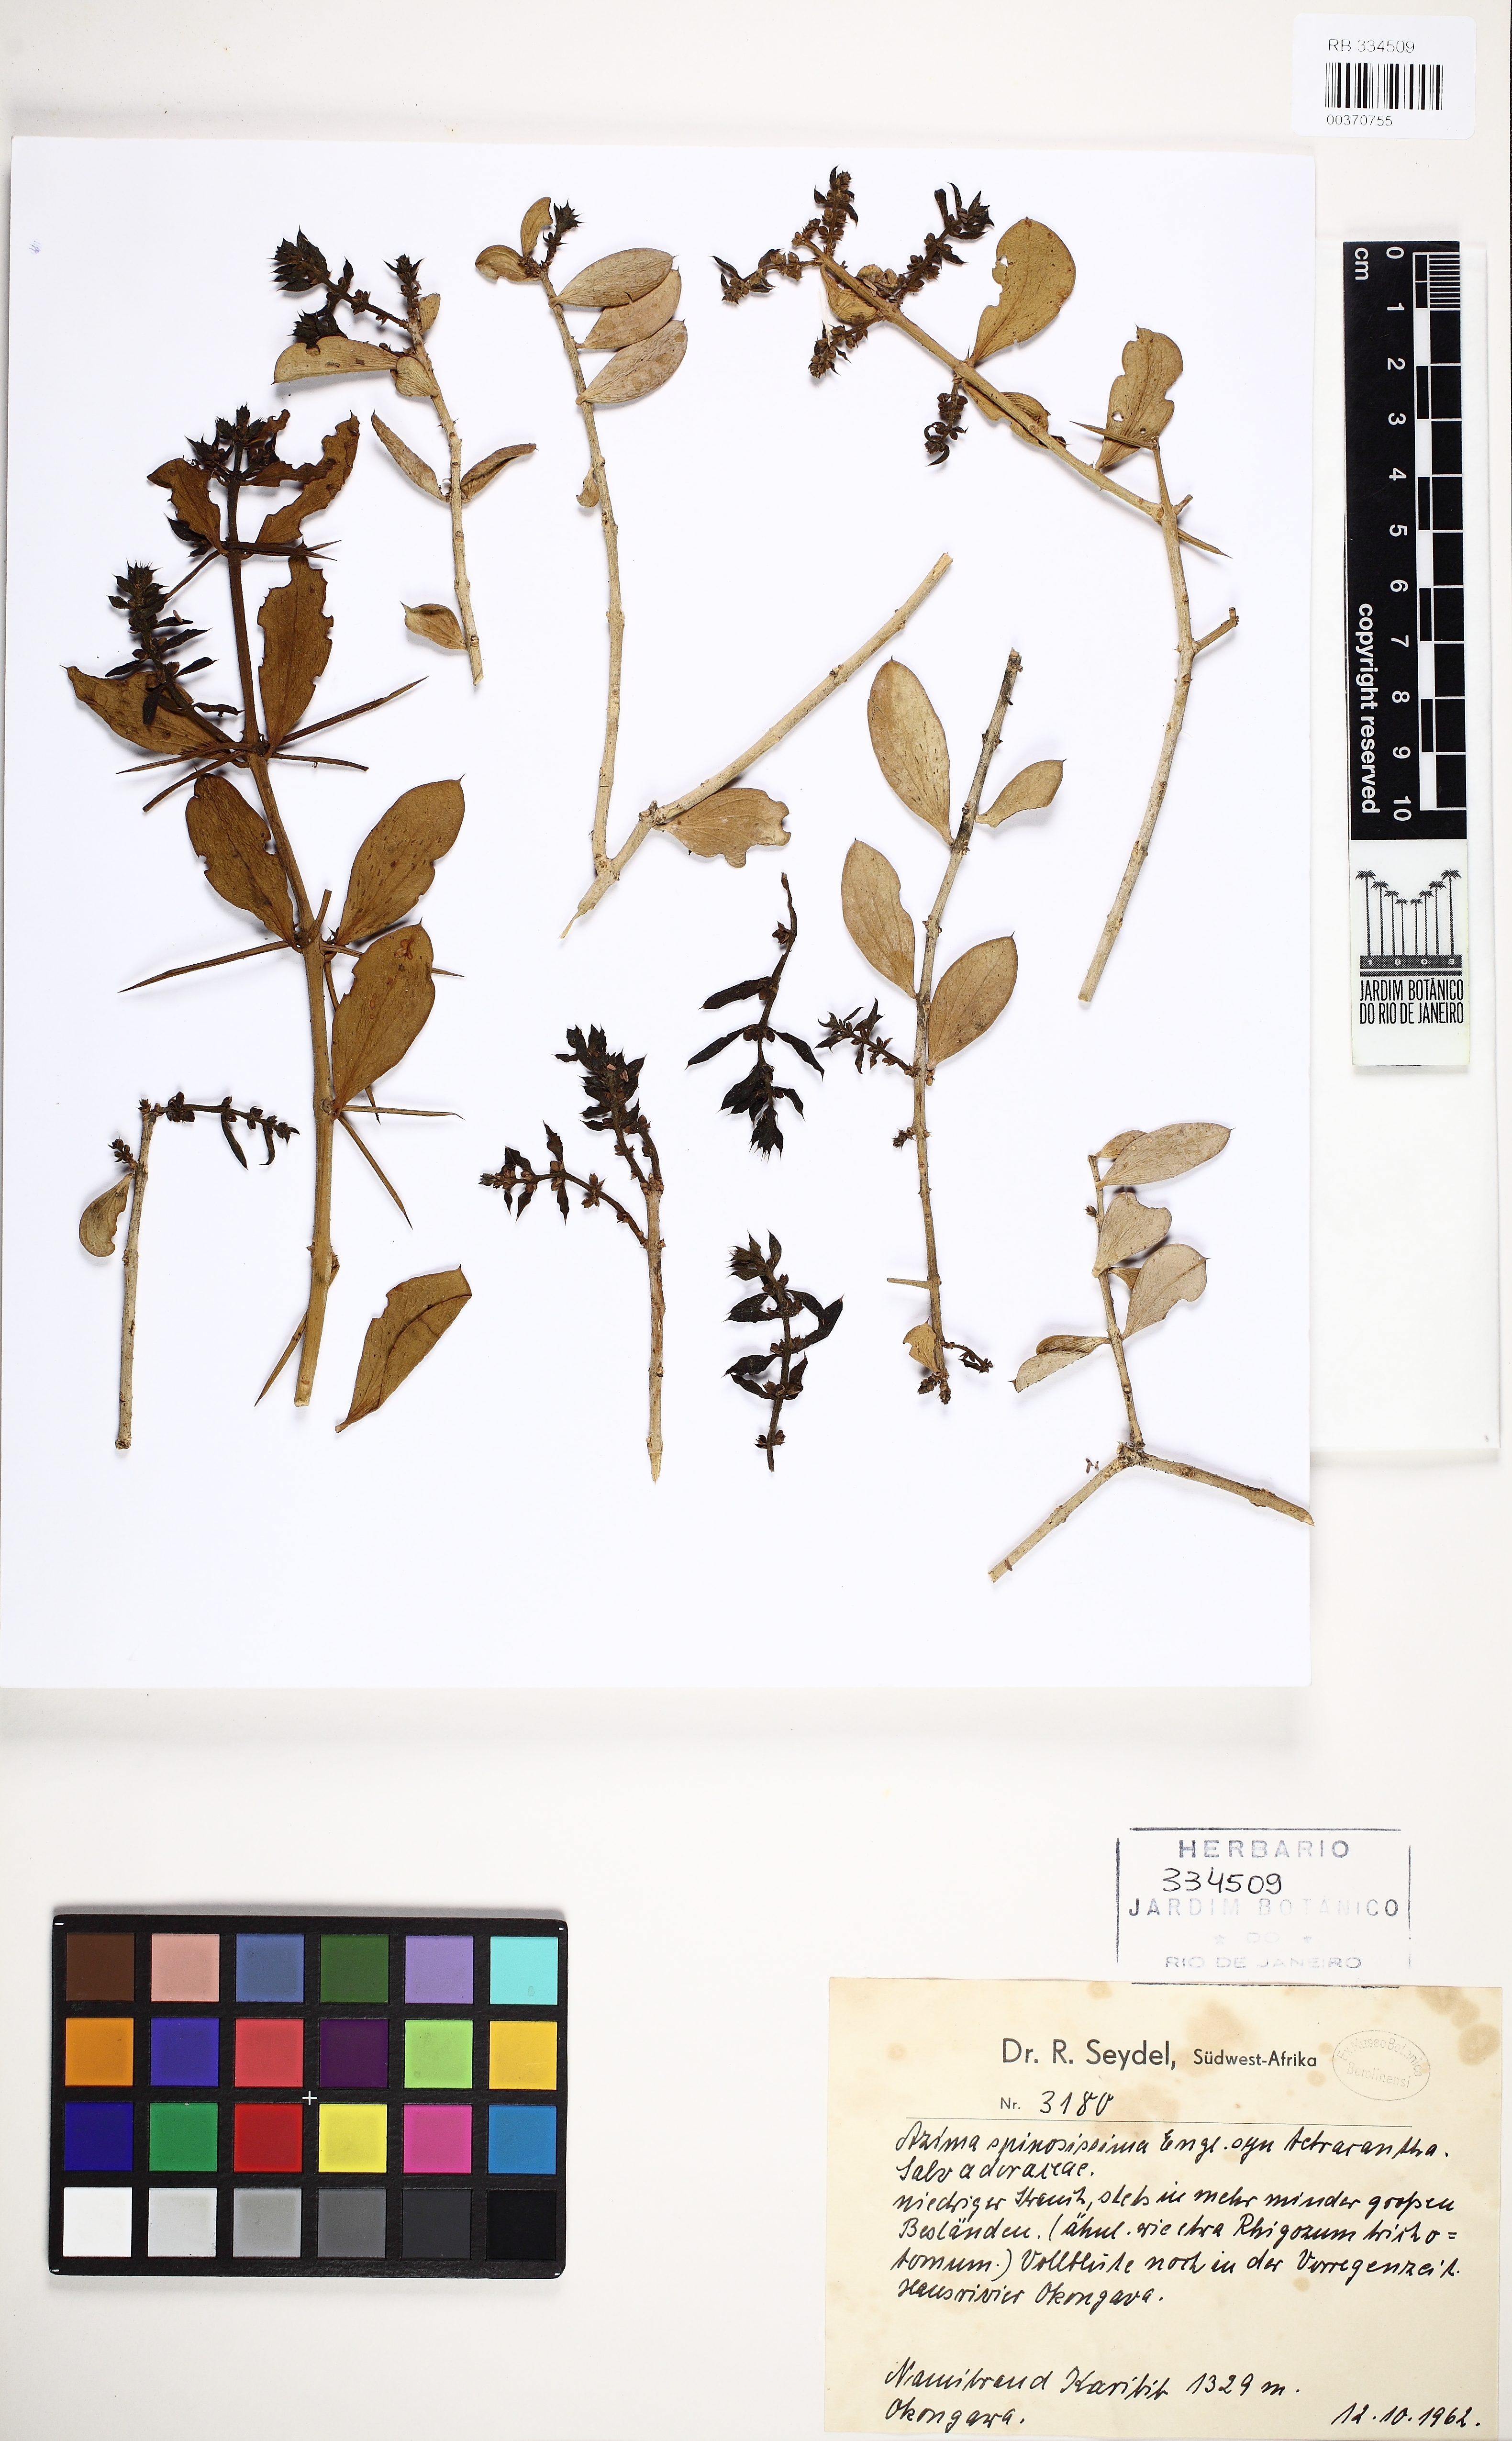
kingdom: Plantae
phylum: Tracheophyta
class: Magnoliopsida
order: Brassicales
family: Salvadoraceae
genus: Azima
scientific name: Azima tetracantha
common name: Needle bush
